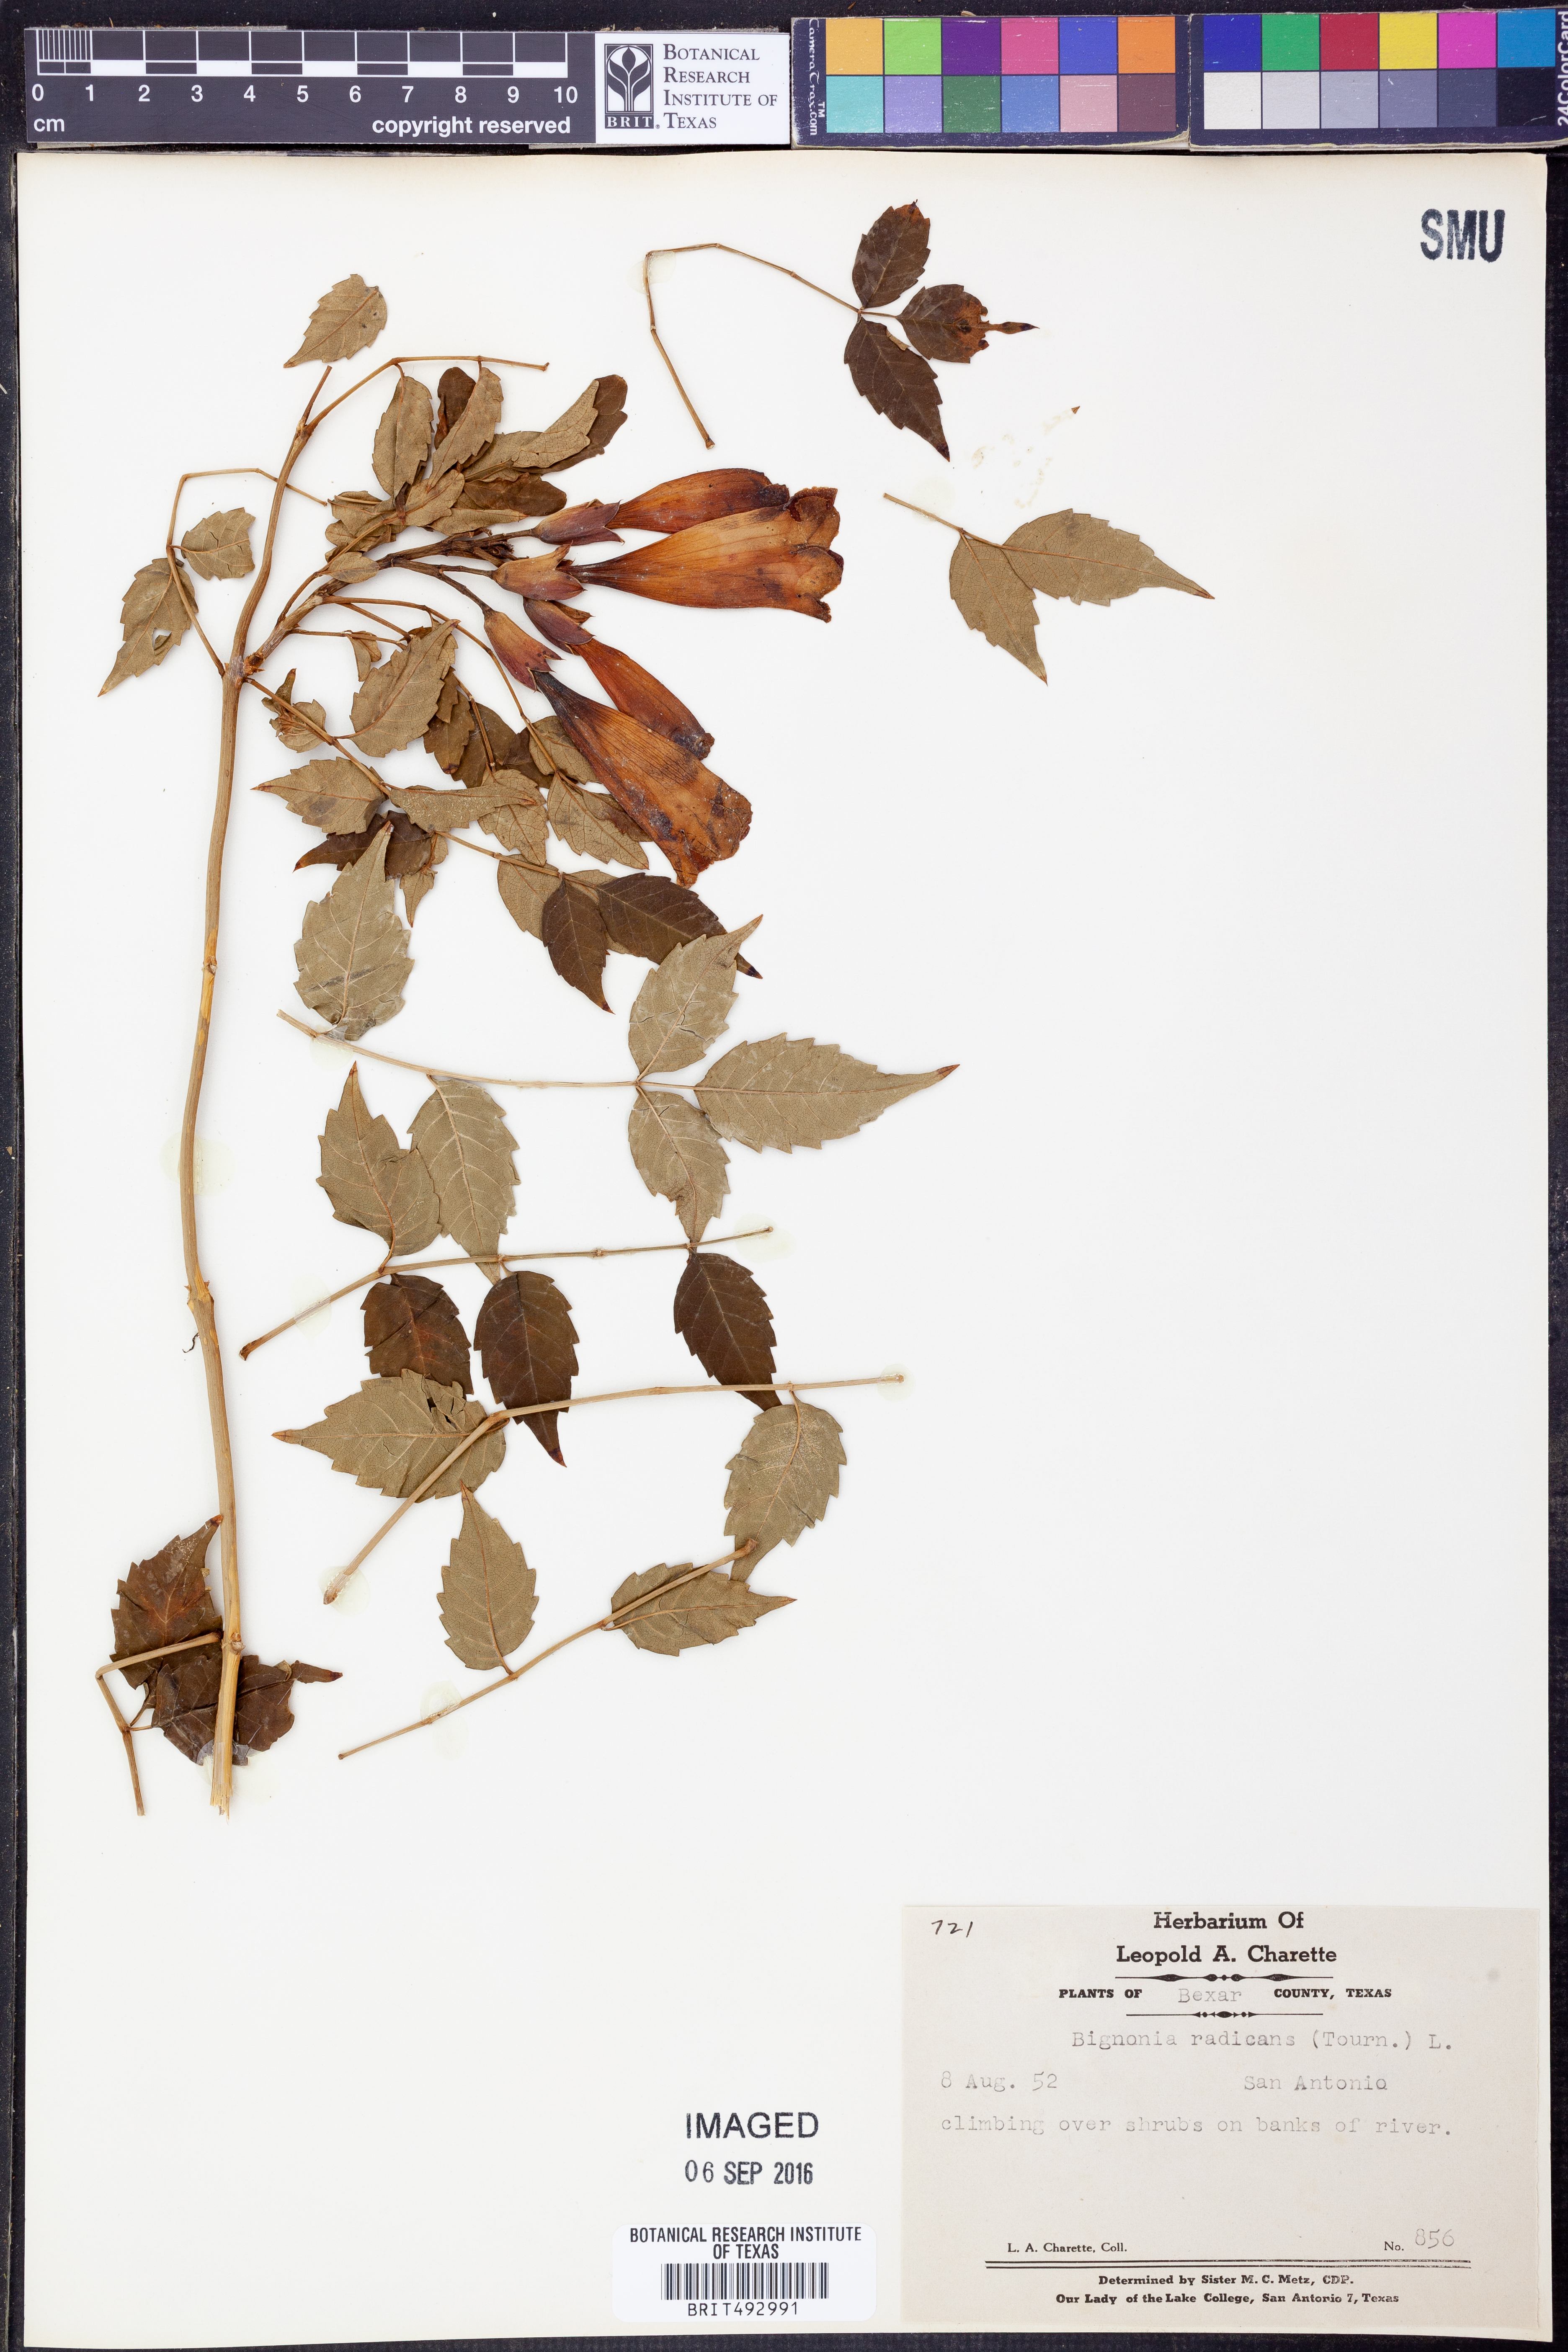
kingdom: Plantae
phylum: Tracheophyta
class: Magnoliopsida
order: Lamiales
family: Bignoniaceae
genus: Campsis
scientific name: Campsis radicans
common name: Trumpet-creeper
